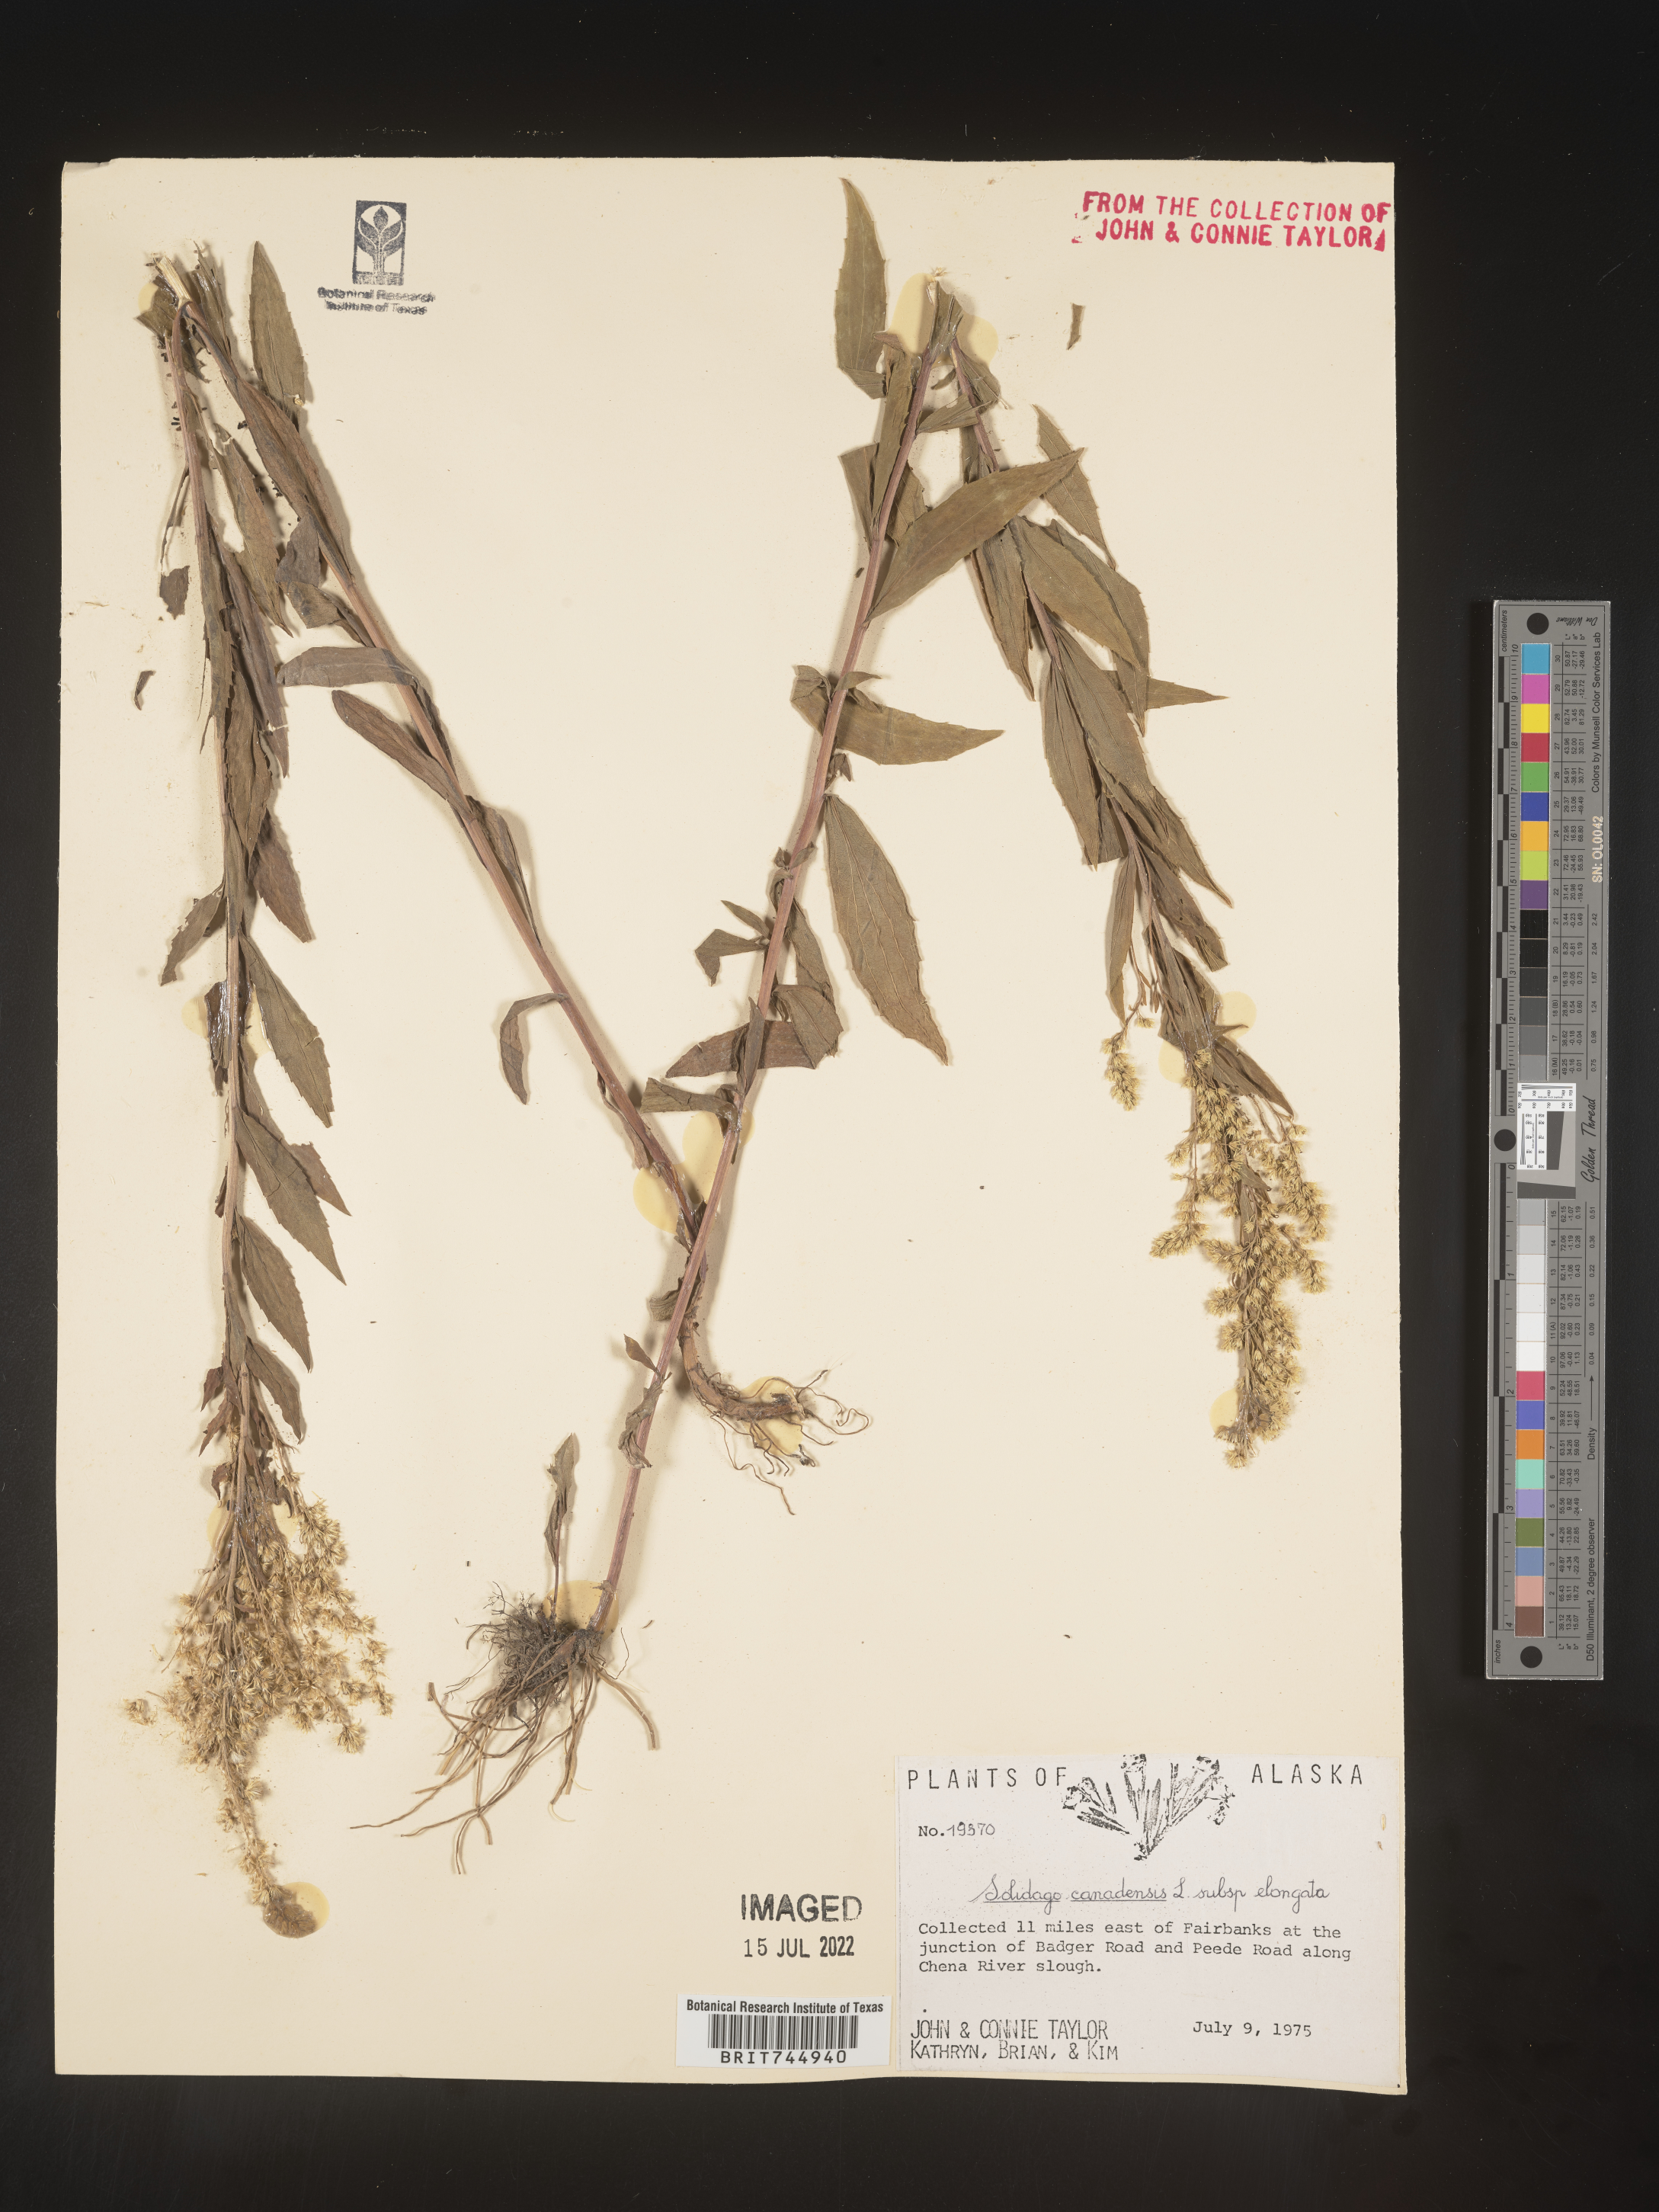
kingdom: Plantae
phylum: Tracheophyta
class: Magnoliopsida
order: Asterales
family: Asteraceae
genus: Solidago
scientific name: Solidago elongata
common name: Cascade canada goldenrod
